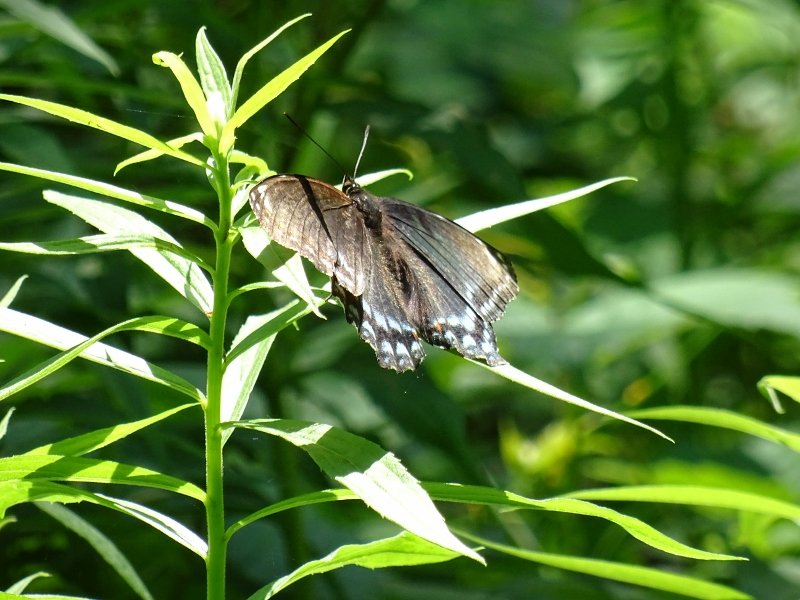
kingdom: Animalia
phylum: Arthropoda
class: Insecta
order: Lepidoptera
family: Nymphalidae
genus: Limenitis
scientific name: Limenitis astyanax
